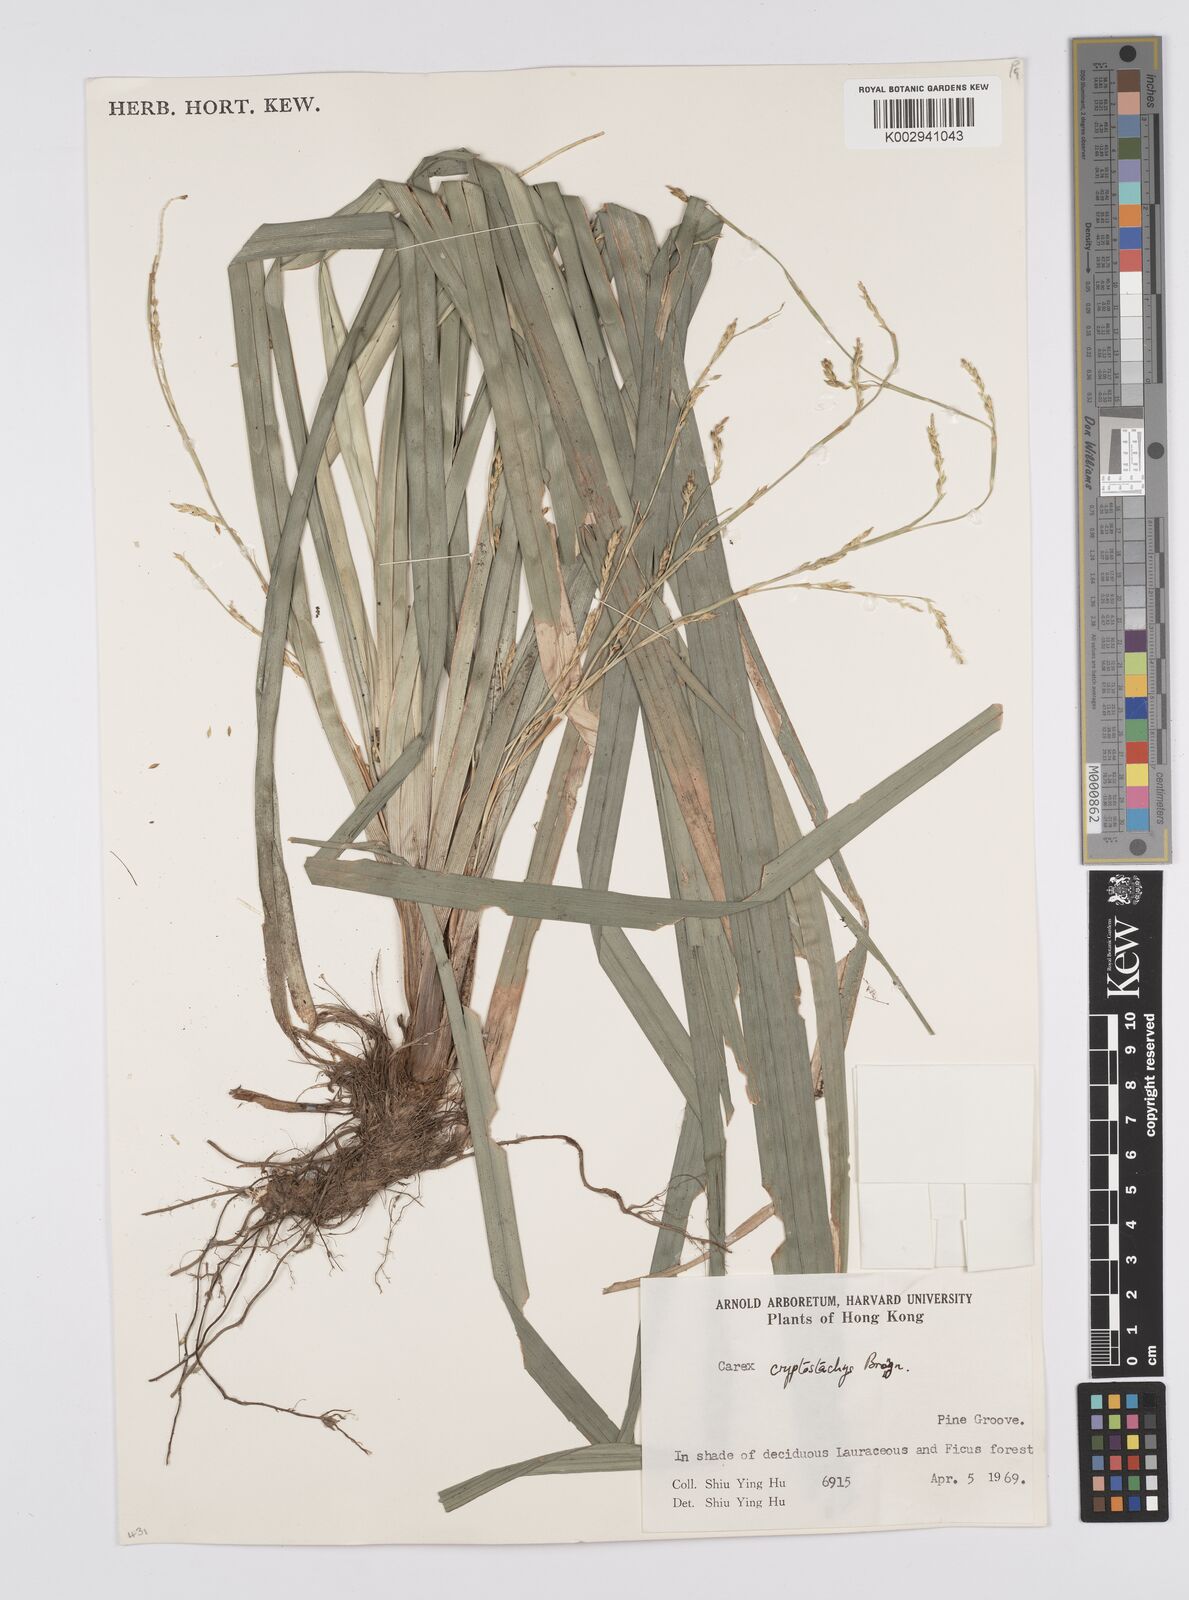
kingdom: Plantae
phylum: Tracheophyta
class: Liliopsida
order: Poales
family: Cyperaceae
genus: Carex
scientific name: Carex cryptostachys
